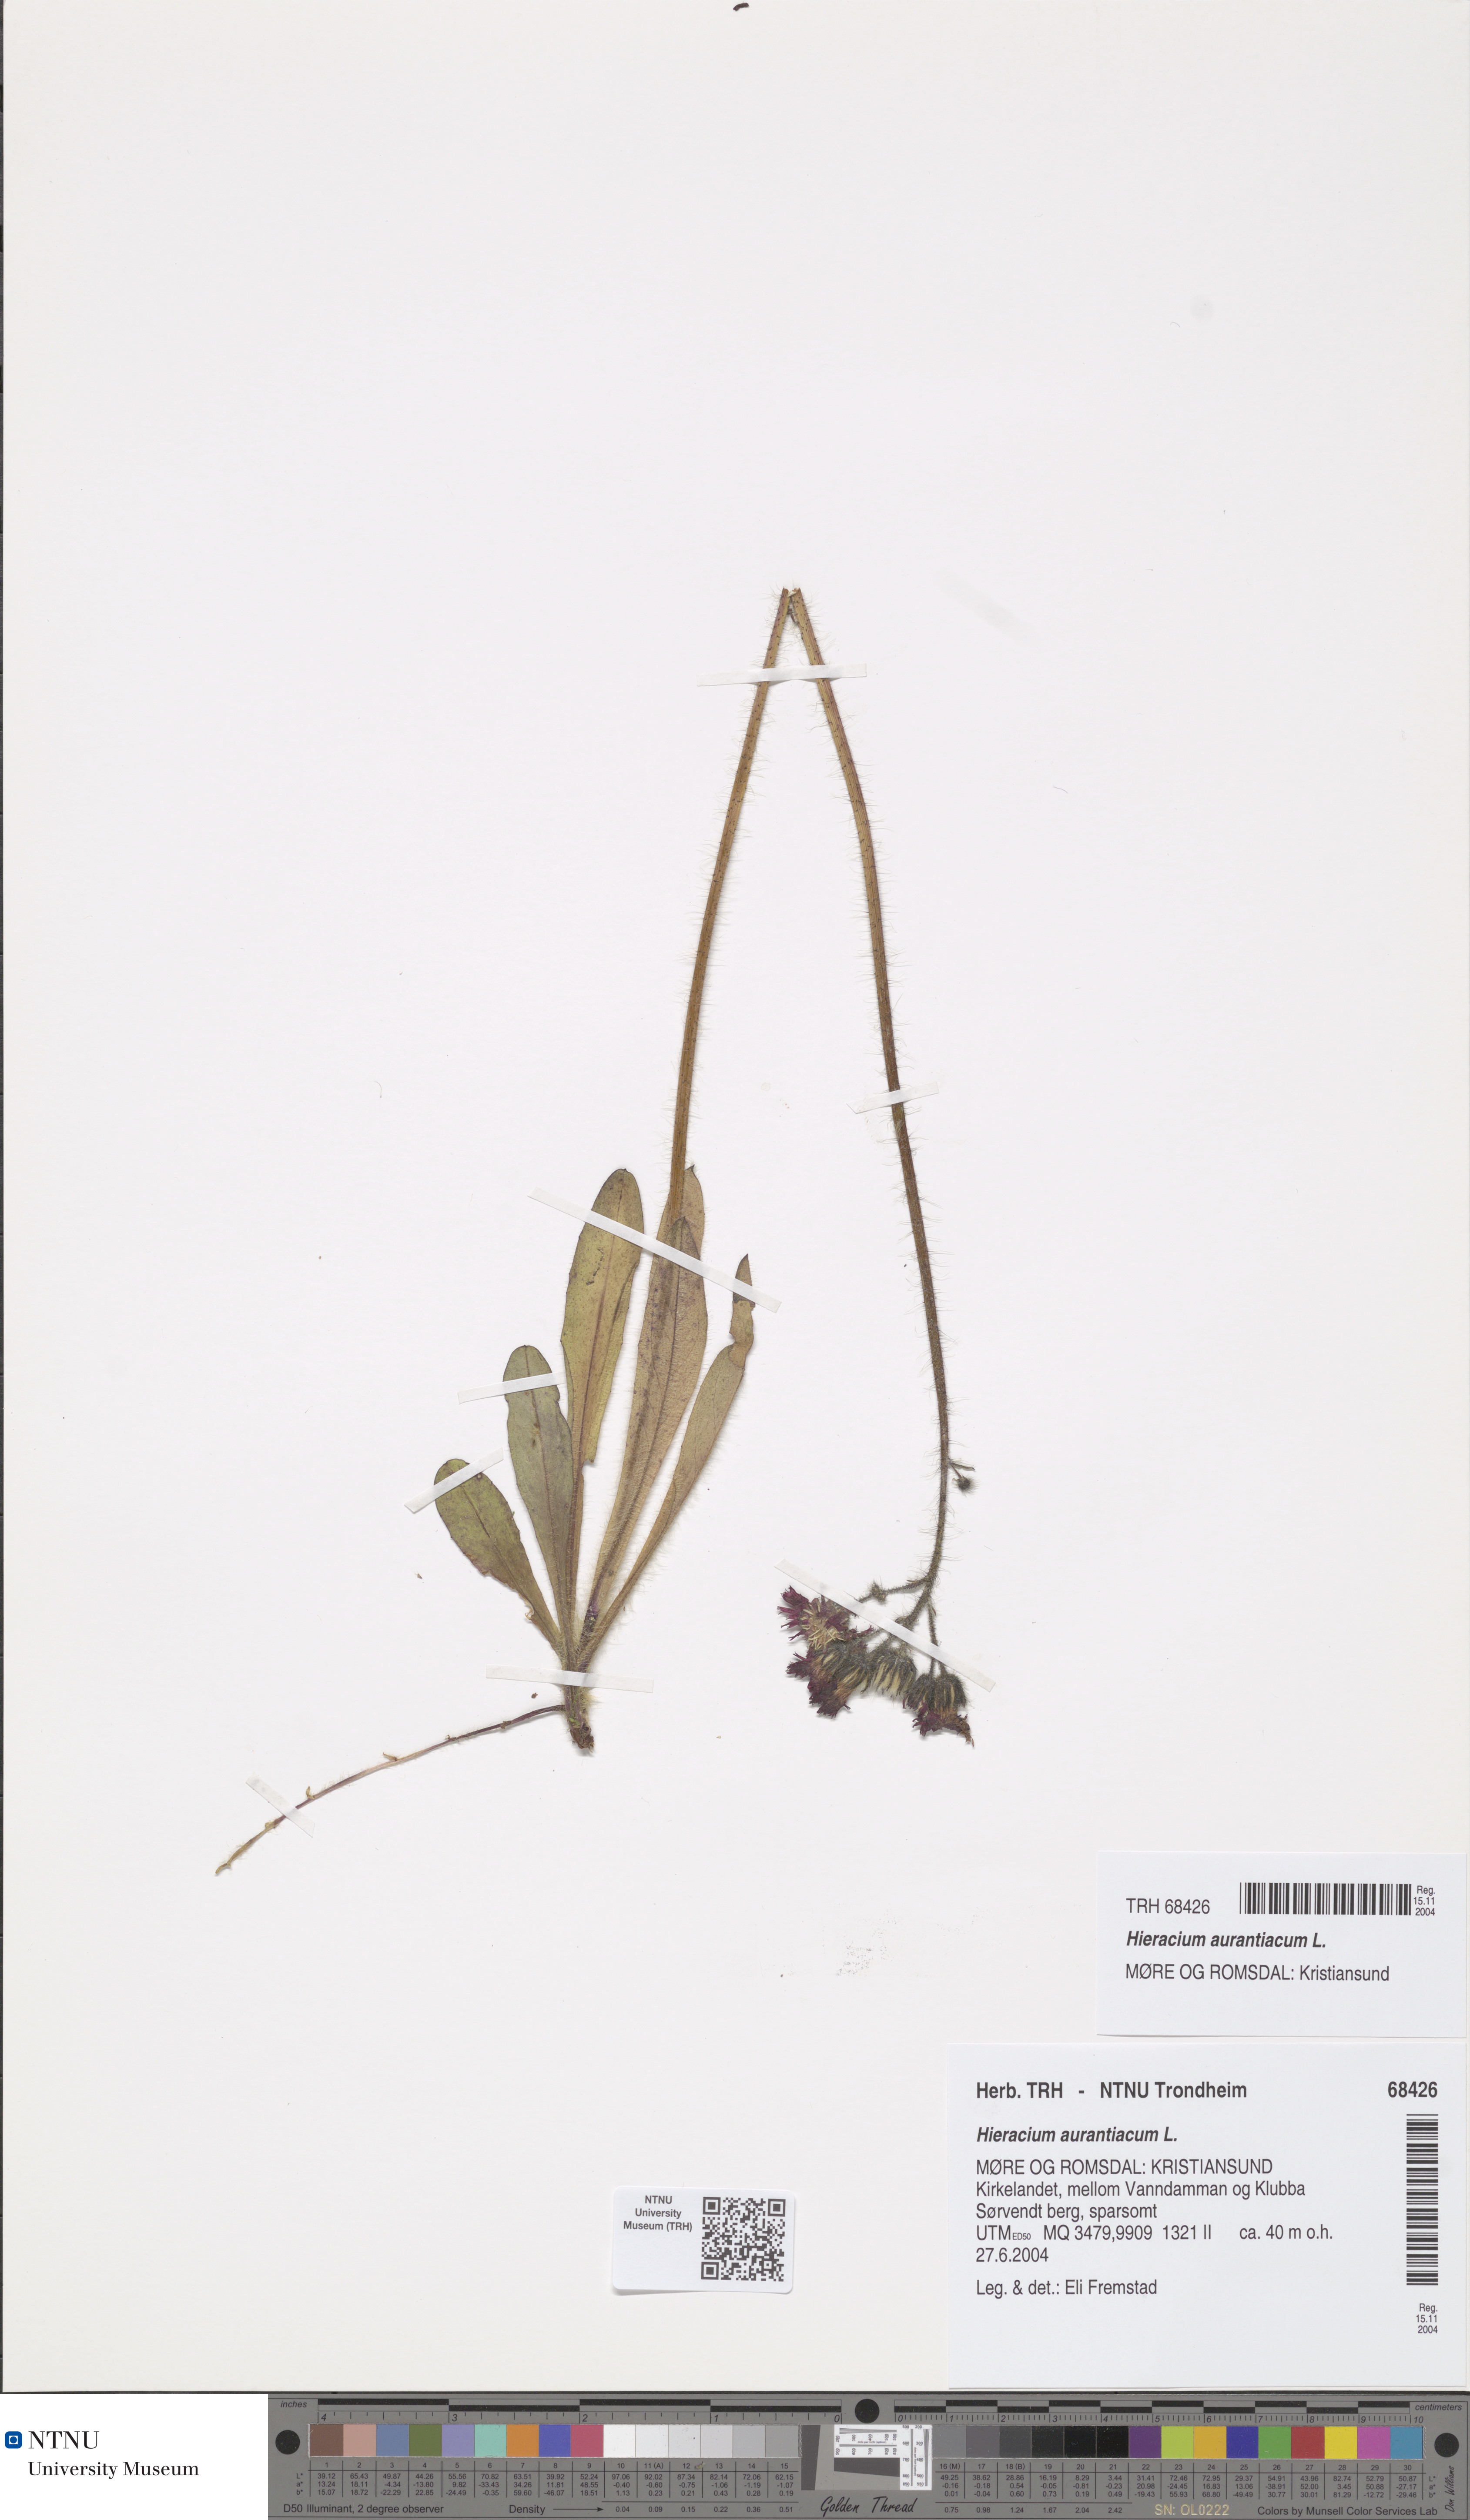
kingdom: Plantae
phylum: Tracheophyta
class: Magnoliopsida
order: Asterales
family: Asteraceae
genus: Pilosella
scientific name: Pilosella aurantiaca
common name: Fox-and-cubs
